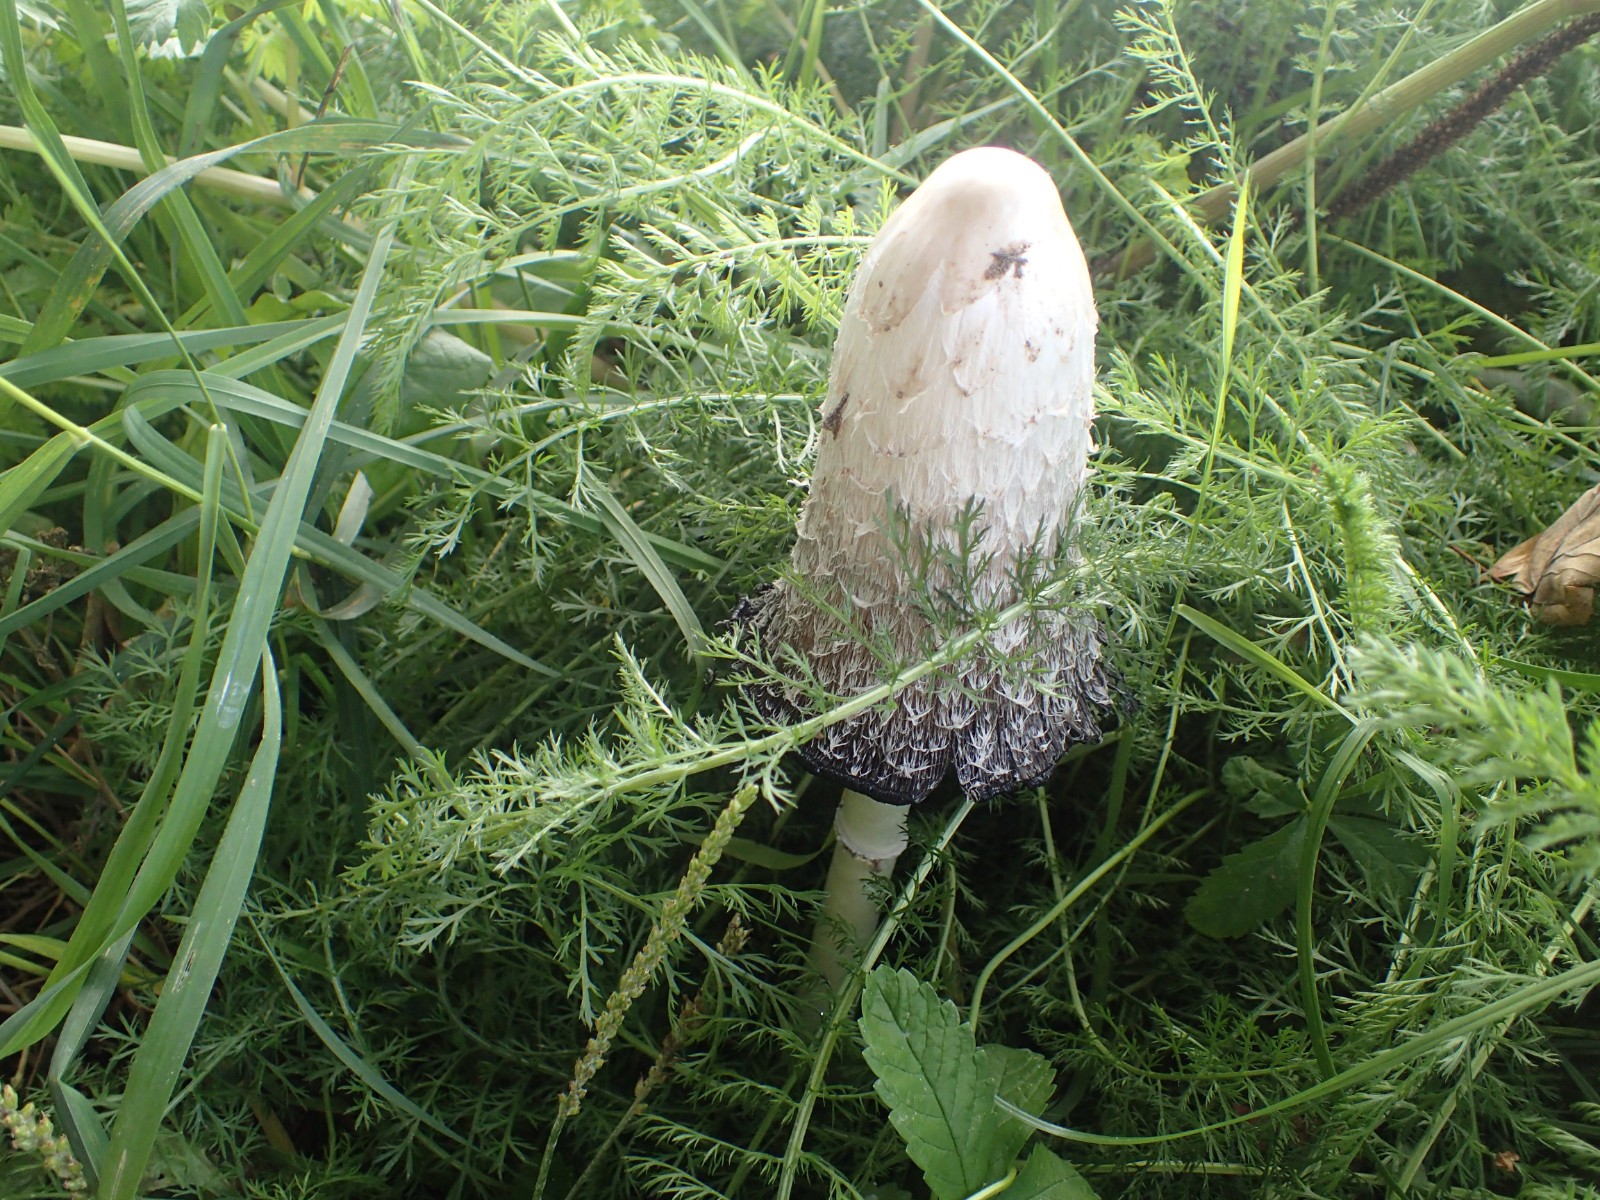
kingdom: Fungi
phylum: Basidiomycota
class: Agaricomycetes
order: Agaricales
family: Agaricaceae
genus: Coprinus
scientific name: Coprinus comatus
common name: stor parykhat
